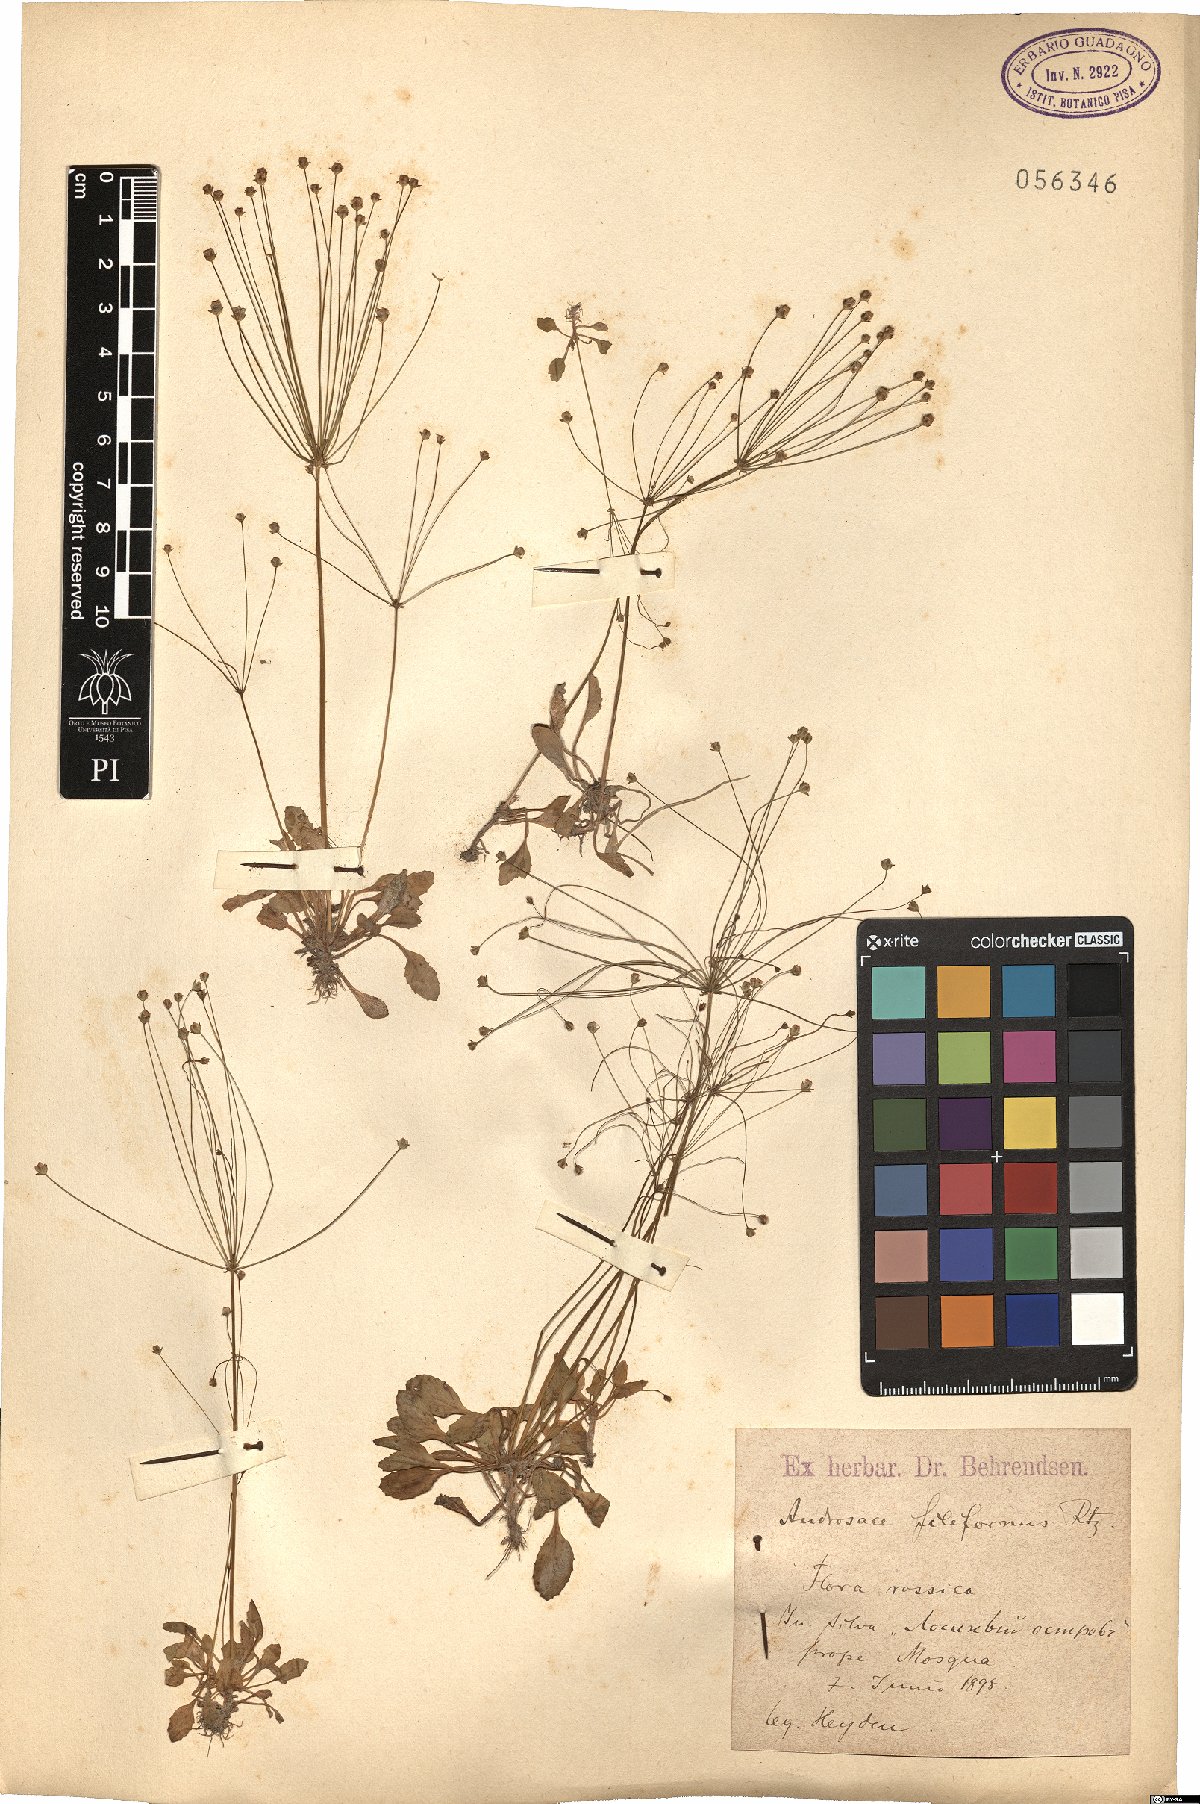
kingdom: Plantae
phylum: Tracheophyta
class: Magnoliopsida
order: Ericales
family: Primulaceae
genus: Androsace
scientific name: Androsace filiformis
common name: Filiform rock jasmine
